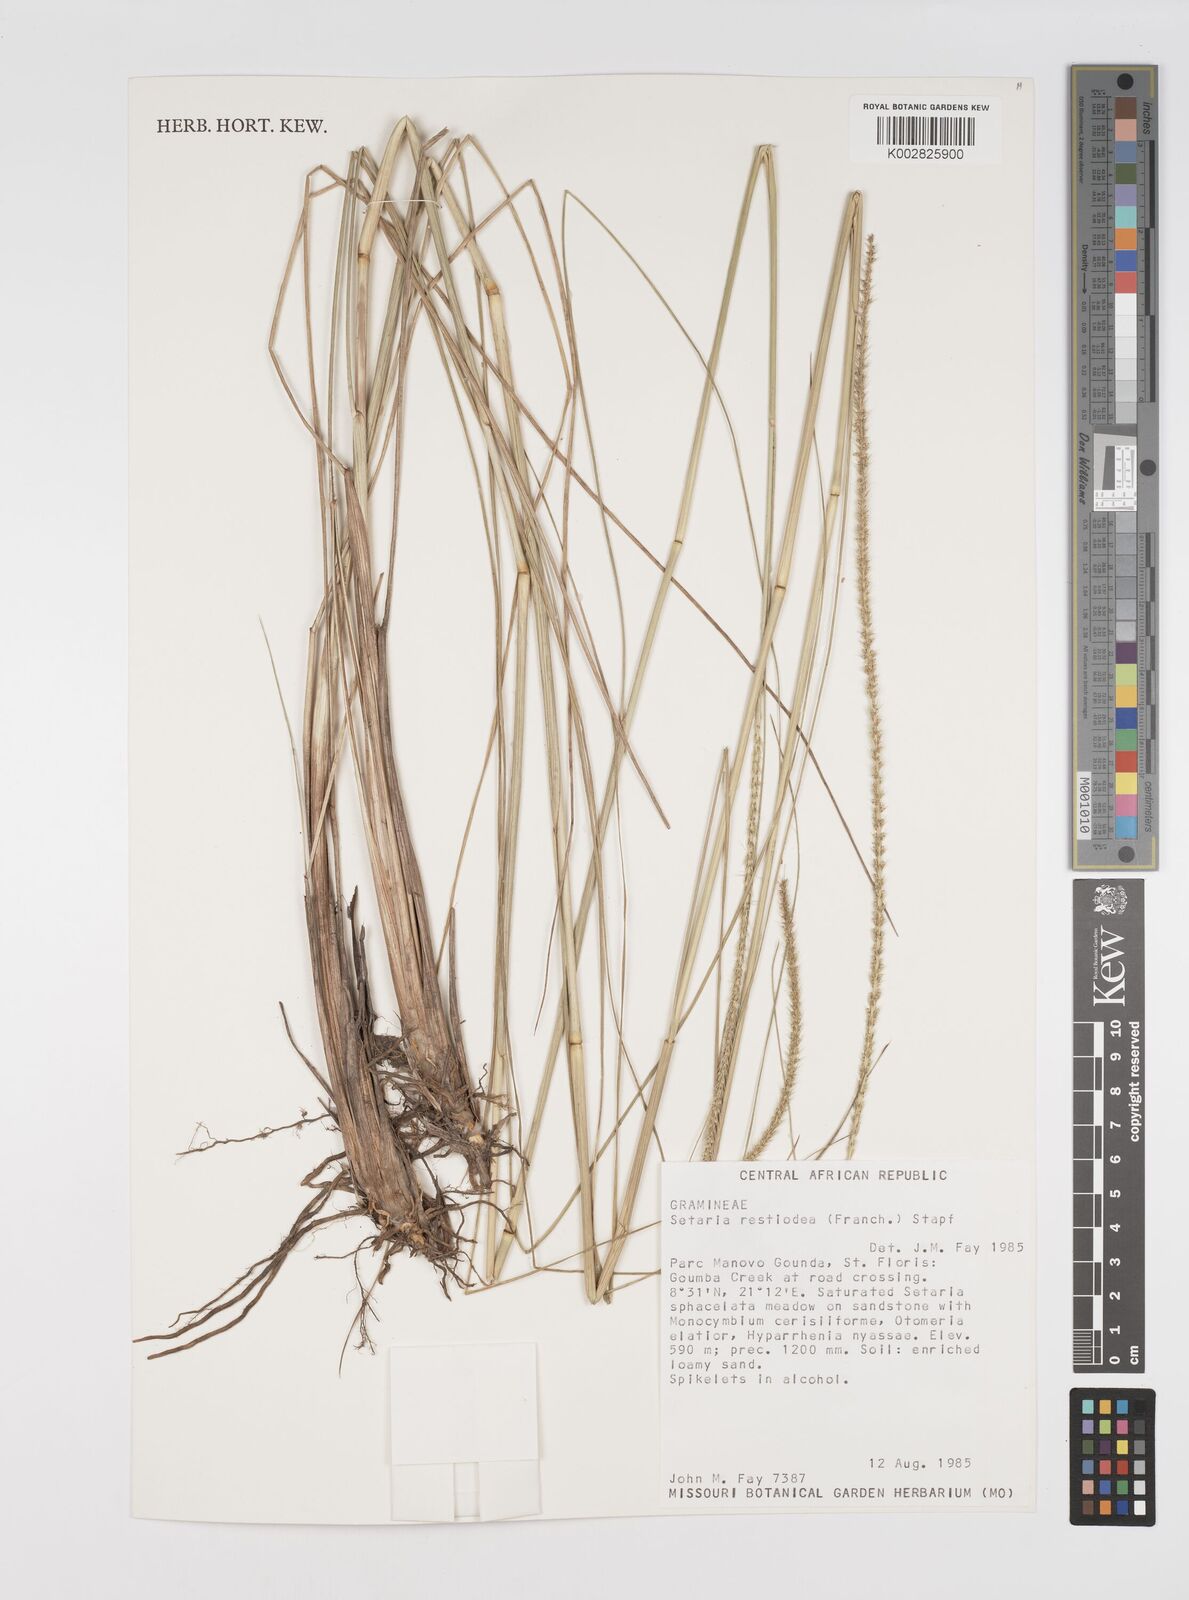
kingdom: Plantae
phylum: Tracheophyta
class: Liliopsida
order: Poales
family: Poaceae
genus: Setaria
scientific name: Setaria restioidea
